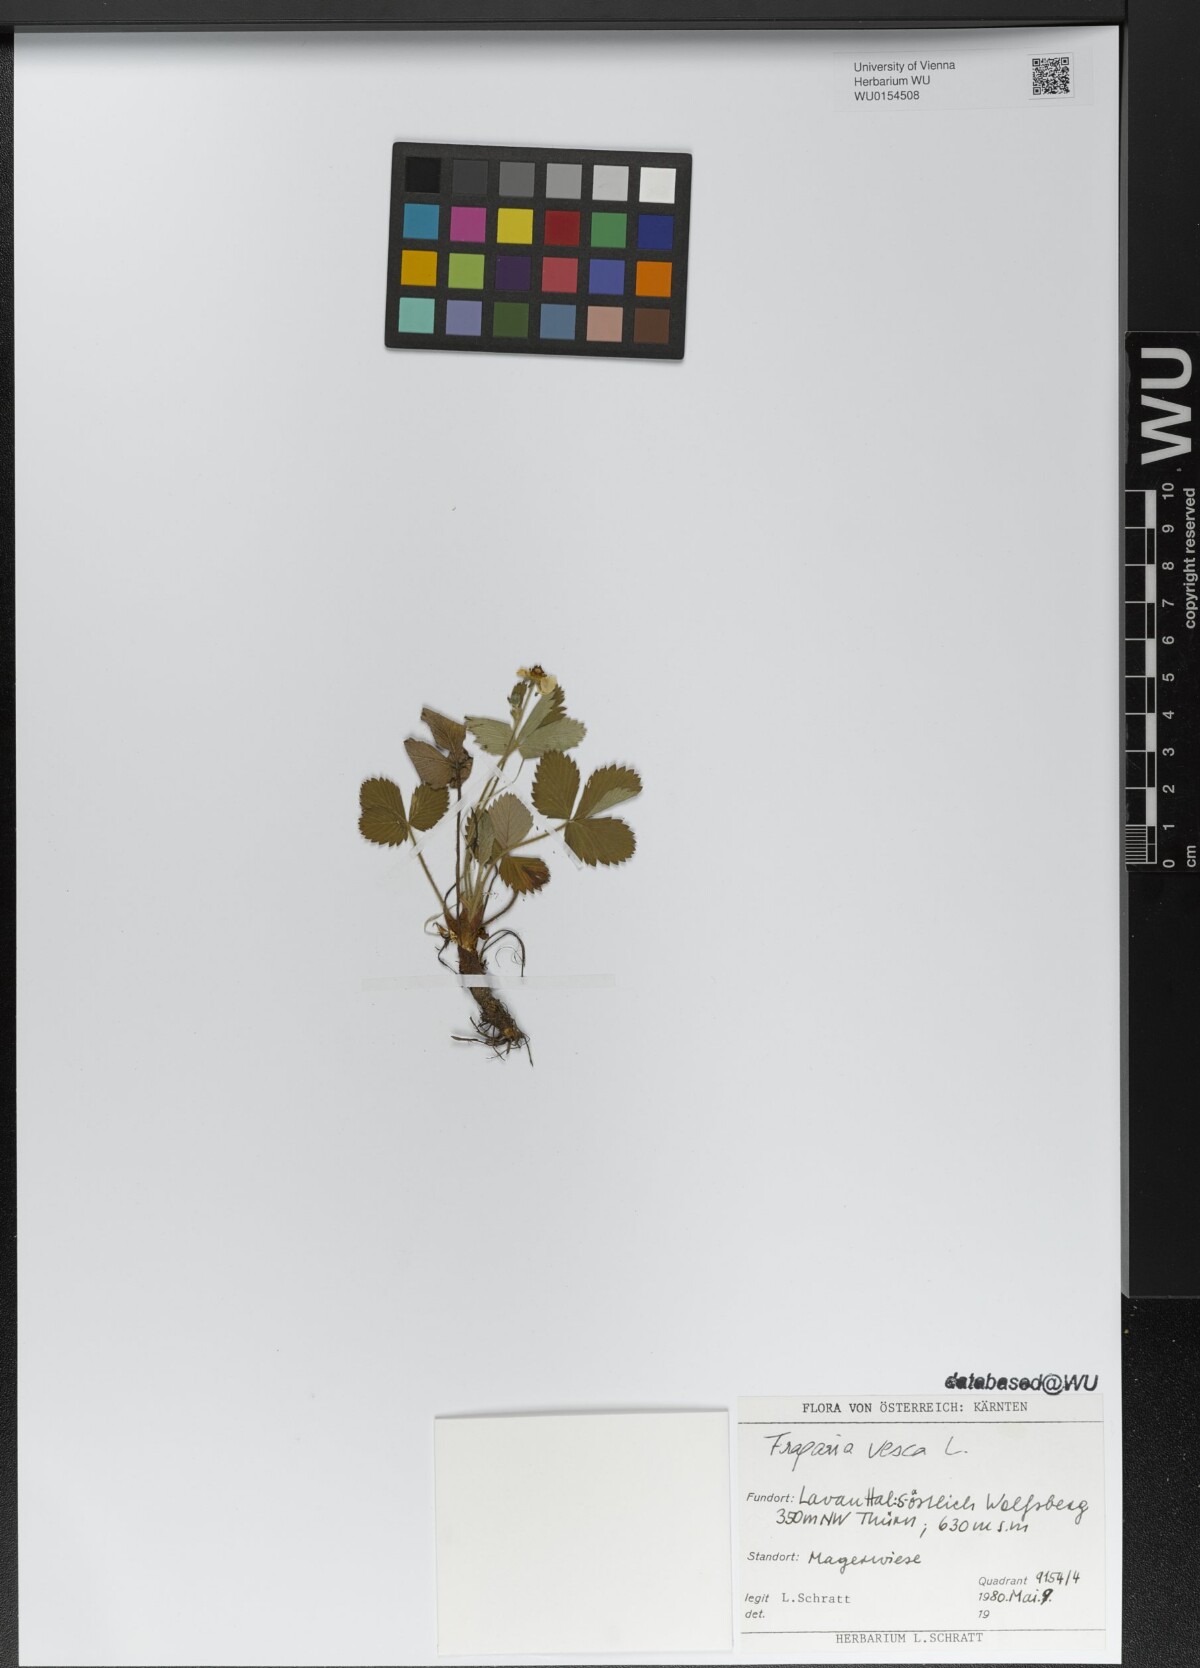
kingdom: Plantae
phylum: Tracheophyta
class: Magnoliopsida
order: Rosales
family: Rosaceae
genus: Fragaria
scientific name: Fragaria vesca
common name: Wild strawberry
